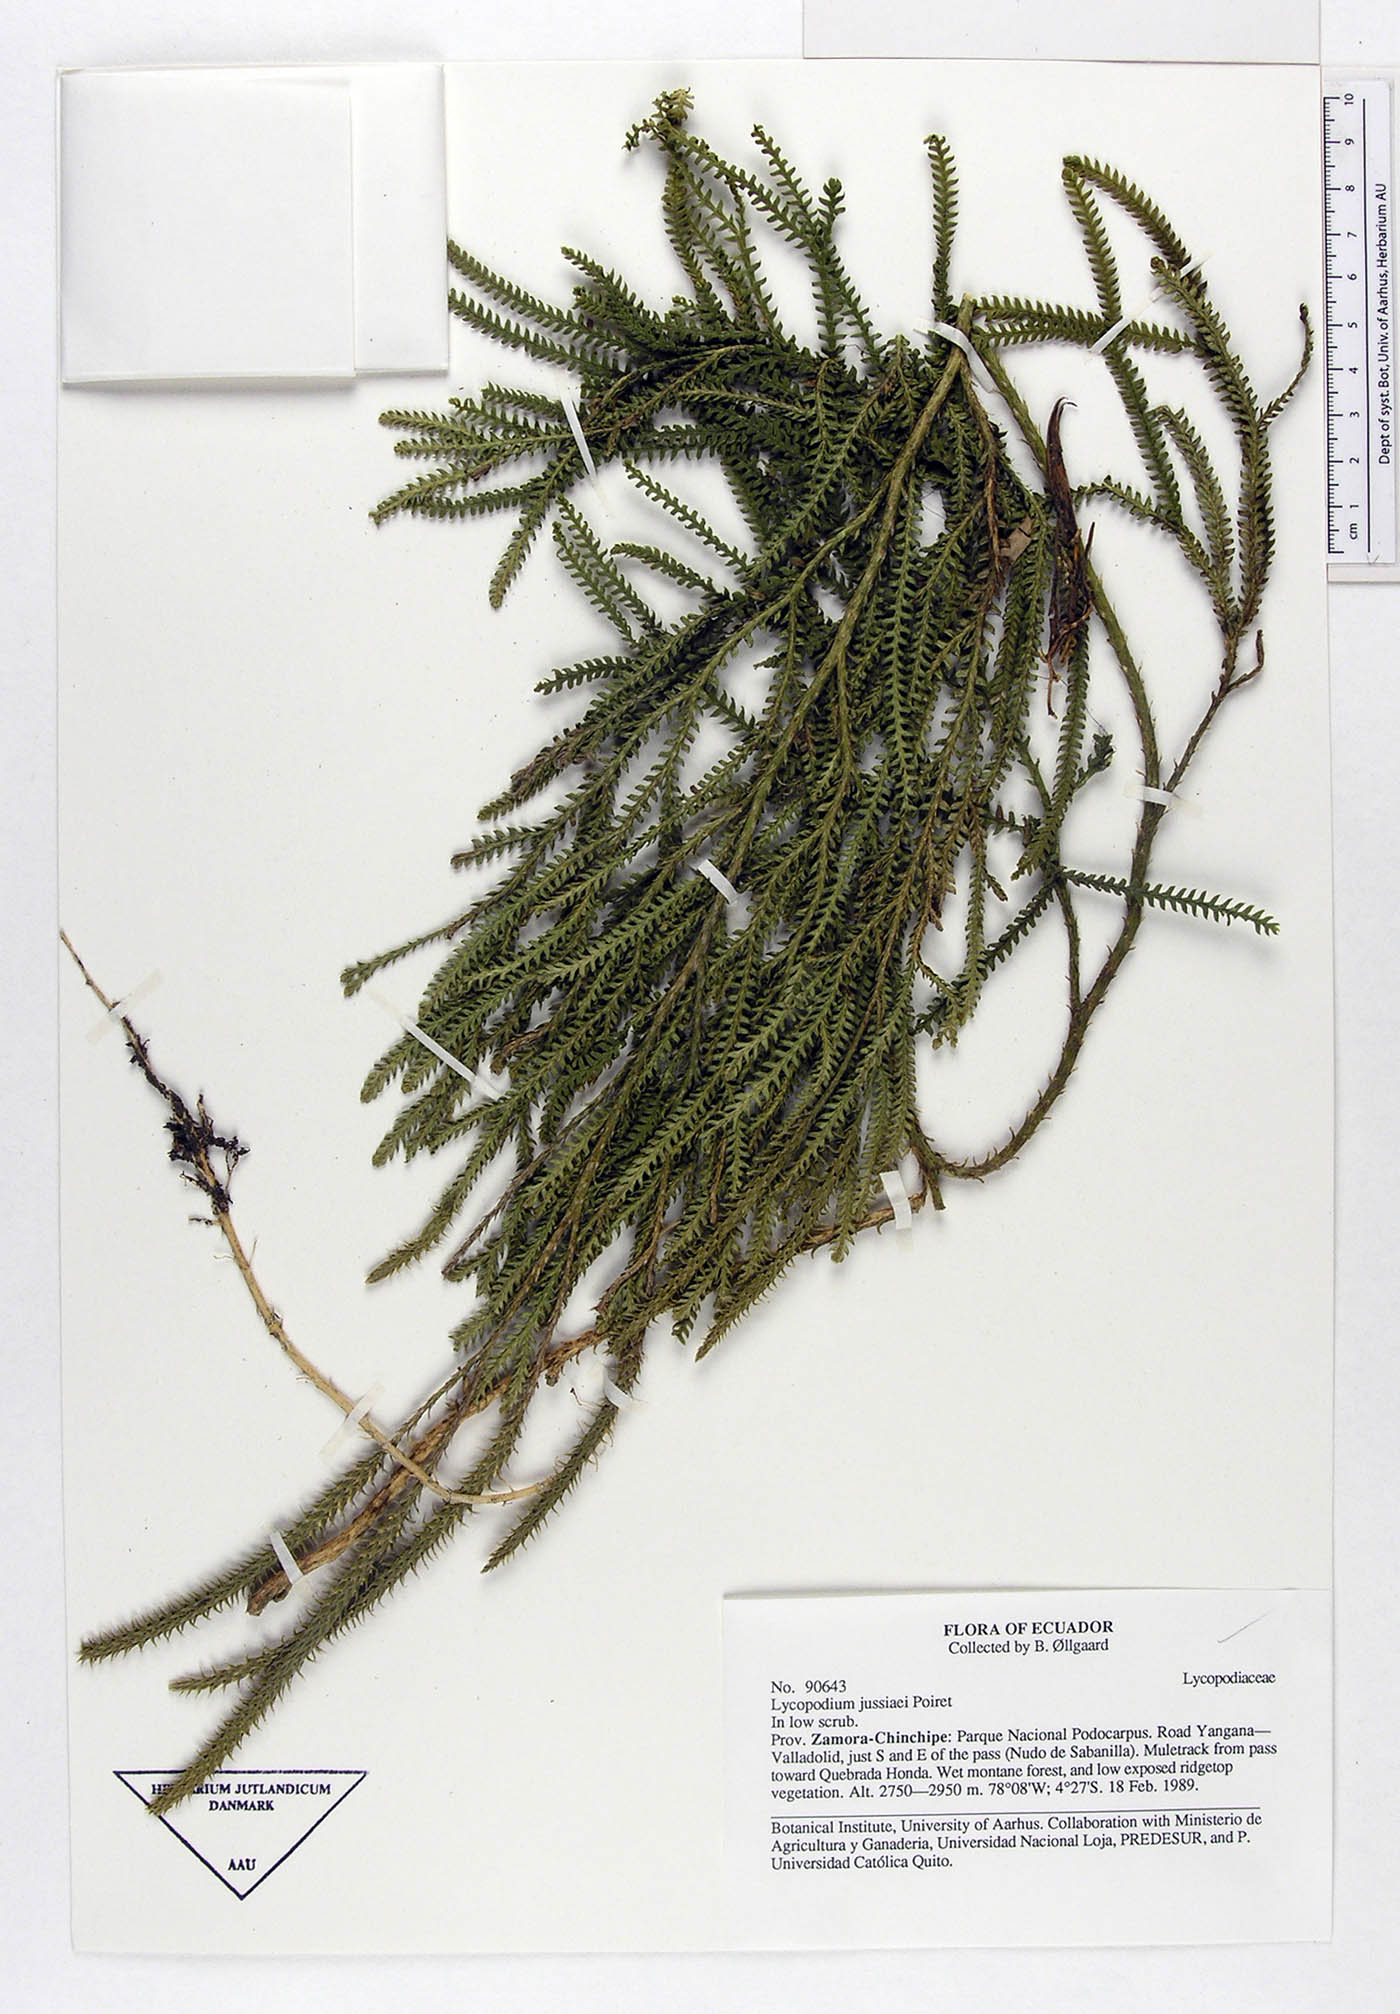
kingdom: Plantae
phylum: Tracheophyta
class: Lycopodiopsida
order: Lycopodiales
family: Lycopodiaceae
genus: Diphasium
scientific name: Diphasium jussiaei
